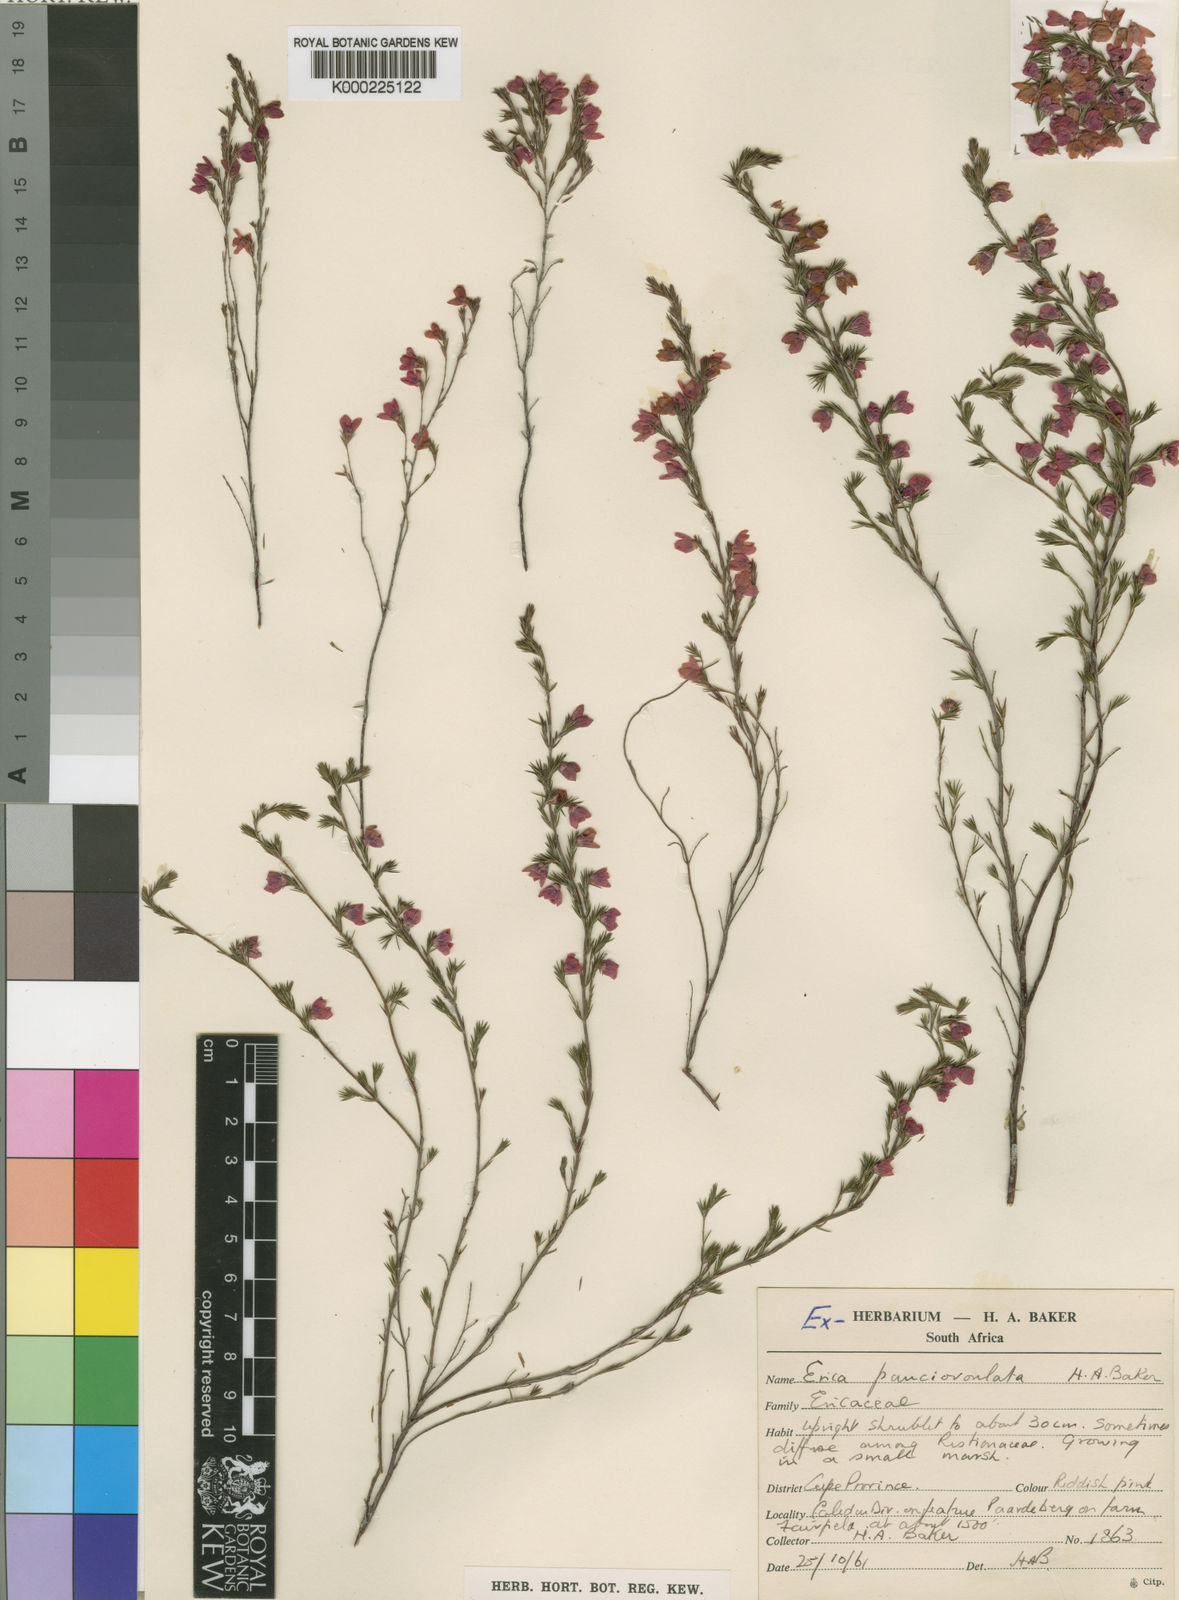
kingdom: Plantae
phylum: Tracheophyta
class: Magnoliopsida
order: Ericales
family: Ericaceae
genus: Erica
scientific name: Erica pauciovulata
